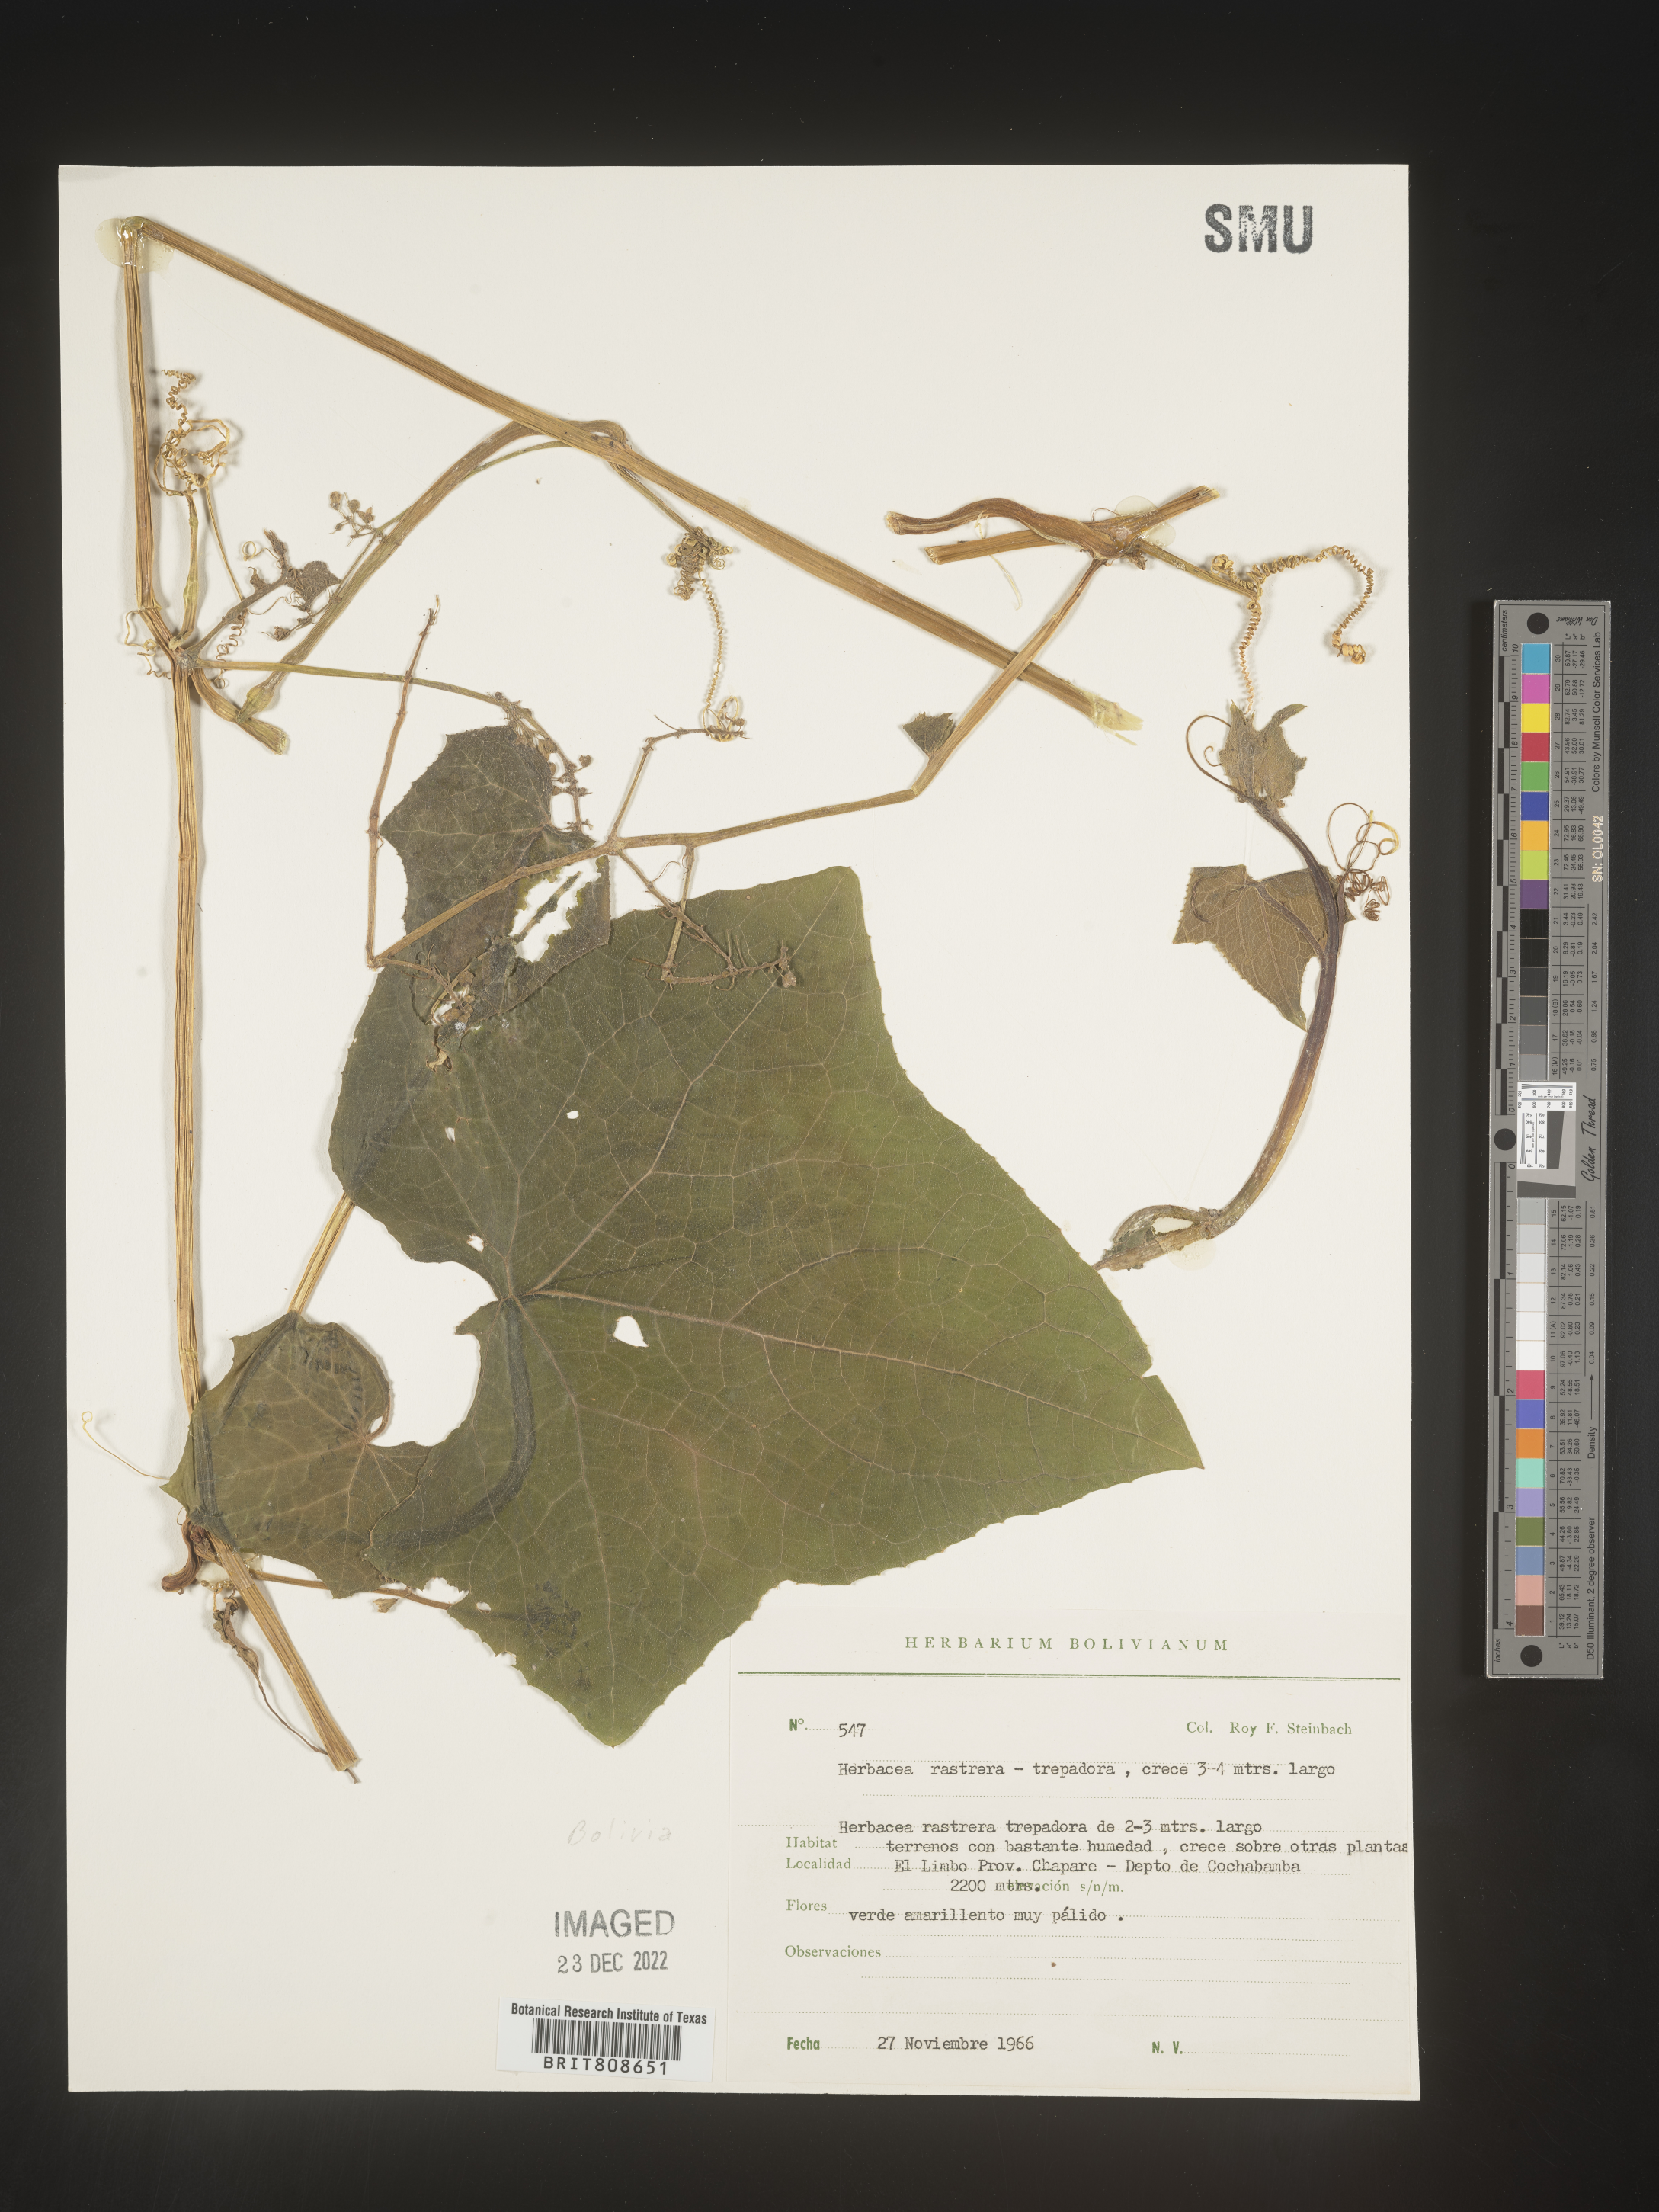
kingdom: Plantae
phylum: Tracheophyta
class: Magnoliopsida
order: Cucurbitales
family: Cucurbitaceae
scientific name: Cucurbitaceae
